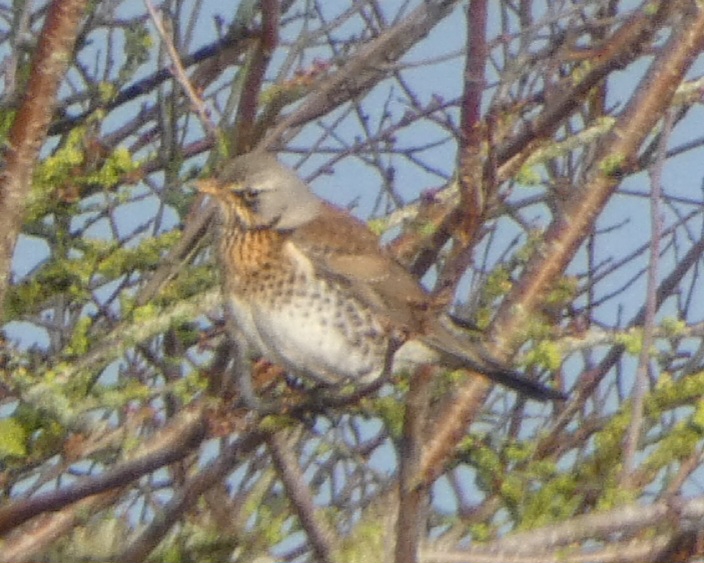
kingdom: Animalia
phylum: Chordata
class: Aves
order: Passeriformes
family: Turdidae
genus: Turdus
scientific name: Turdus pilaris
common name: Sjagger
